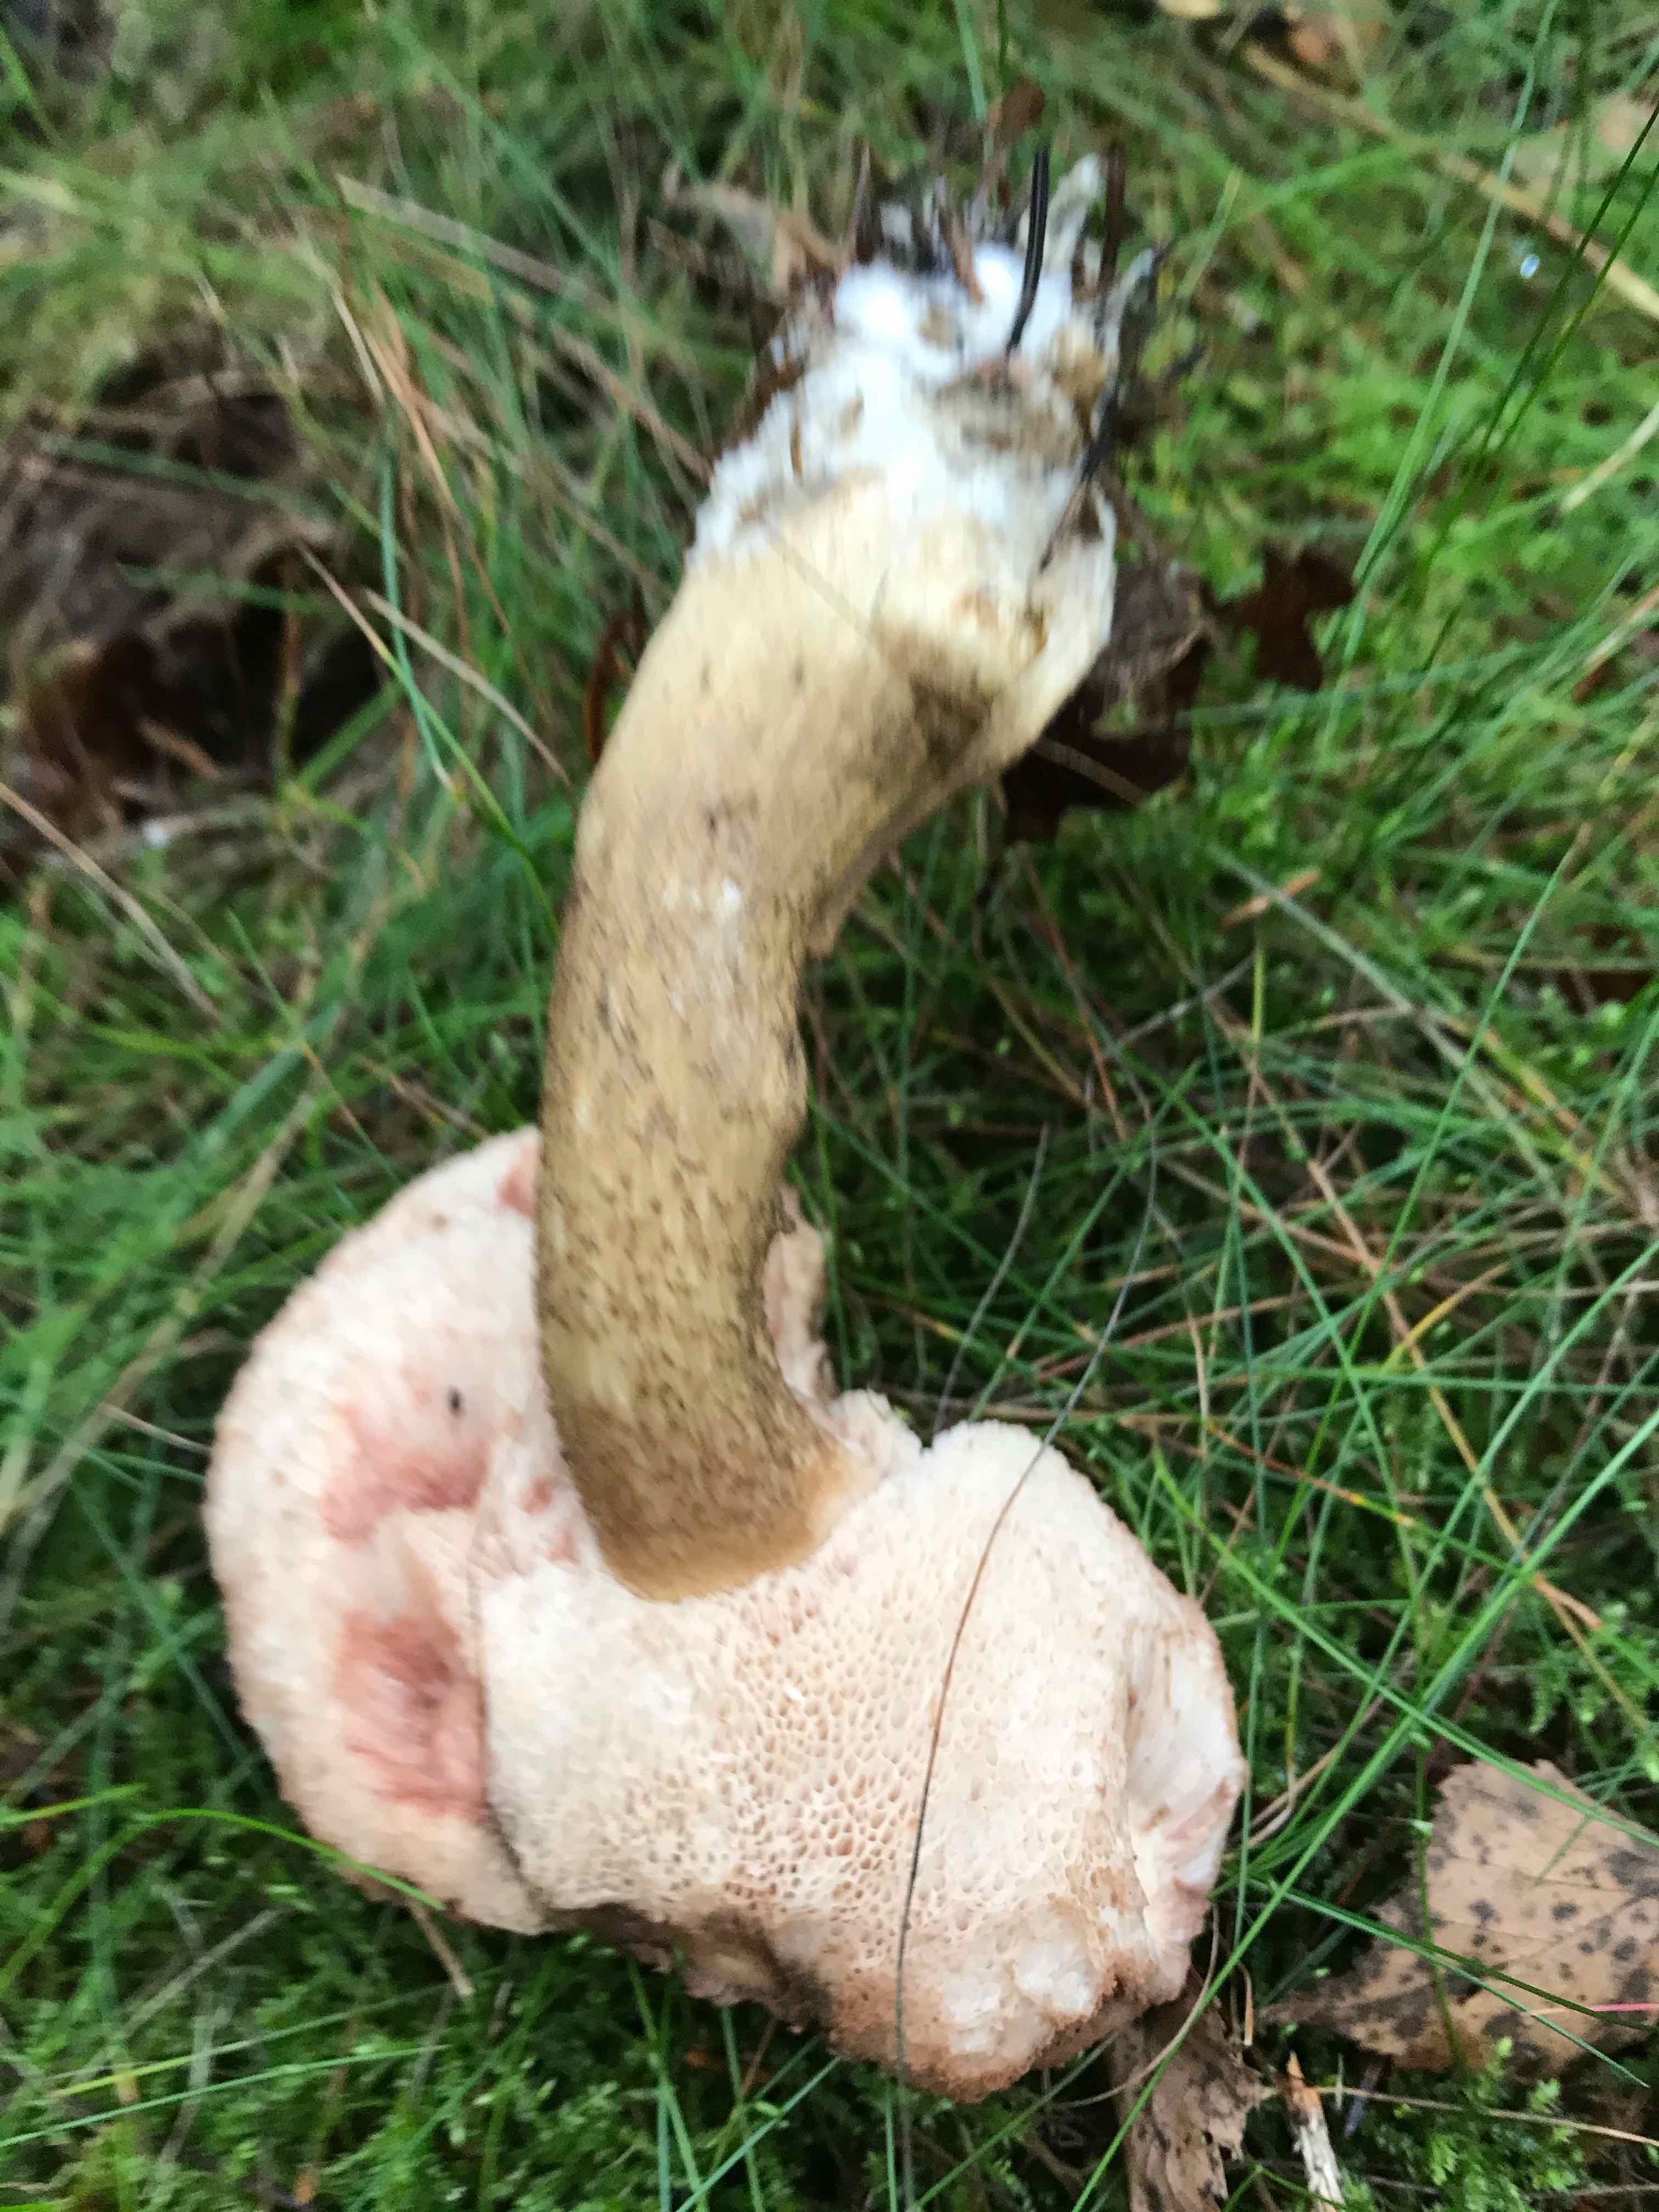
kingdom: Fungi
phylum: Basidiomycota
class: Agaricomycetes
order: Boletales
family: Boletaceae
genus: Tylopilus
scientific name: Tylopilus felleus
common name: galderørhat
